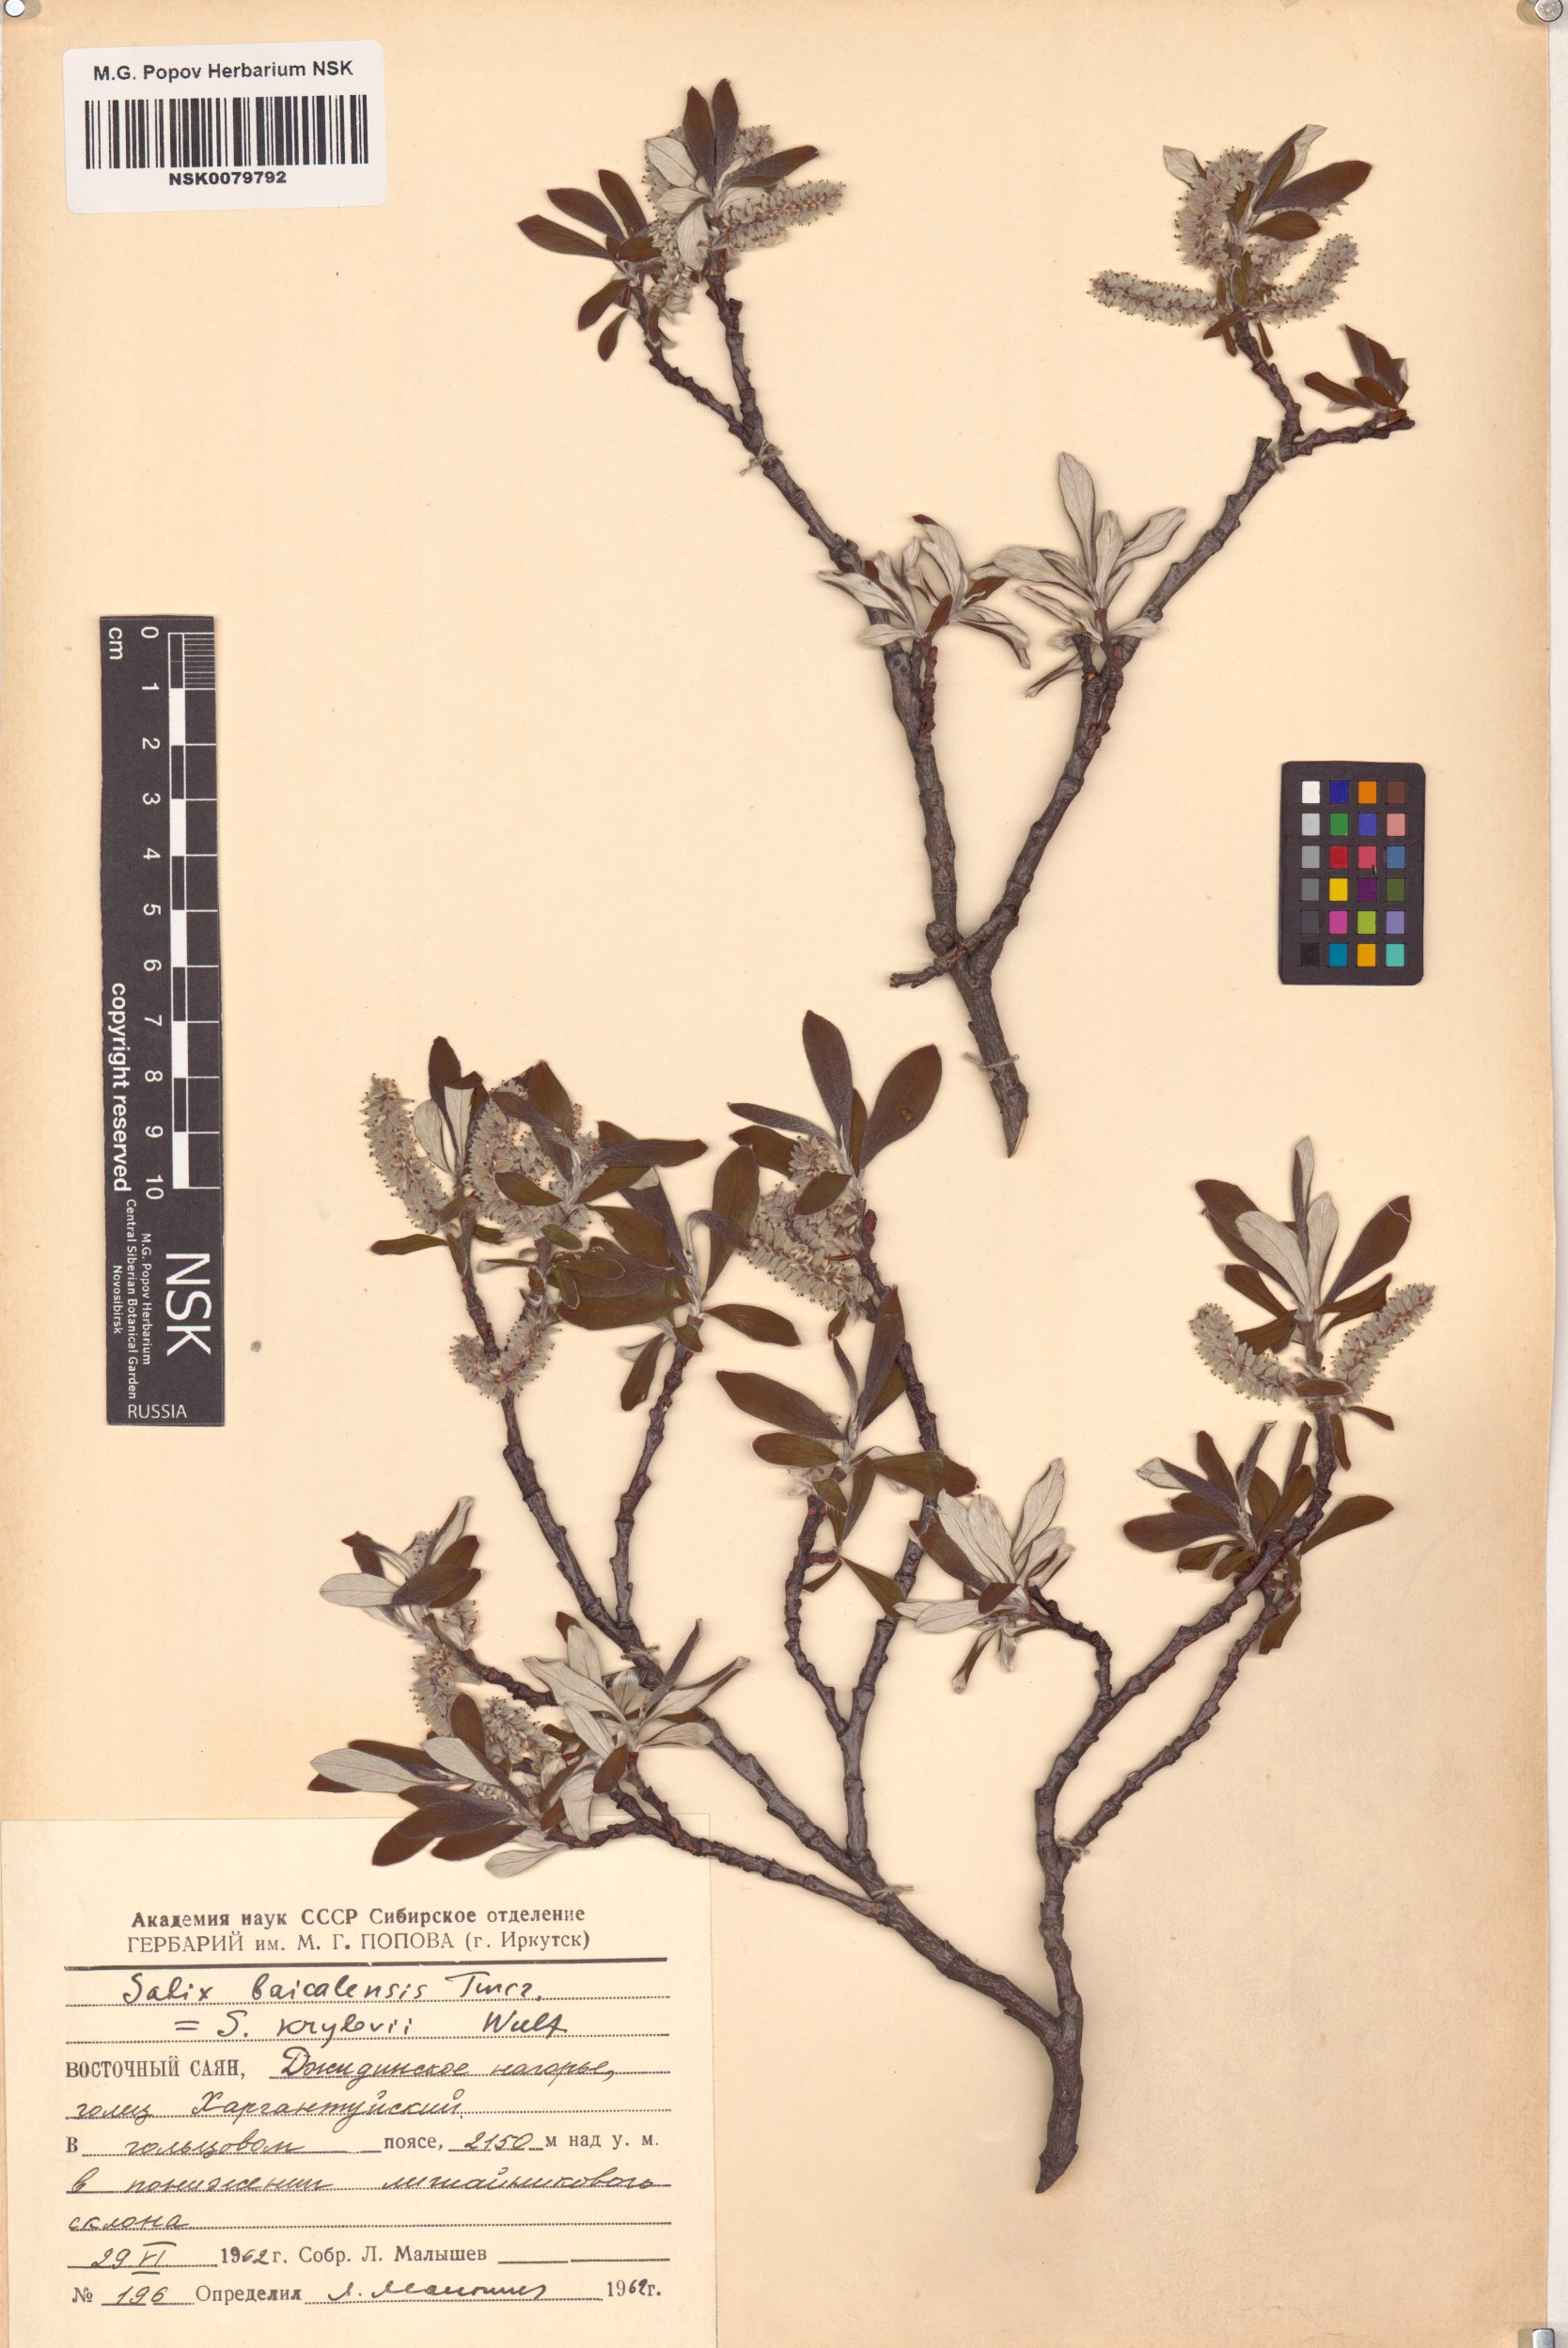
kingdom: Plantae
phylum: Tracheophyta
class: Magnoliopsida
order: Malpighiales
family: Salicaceae
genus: Salix
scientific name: Salix krylovii
